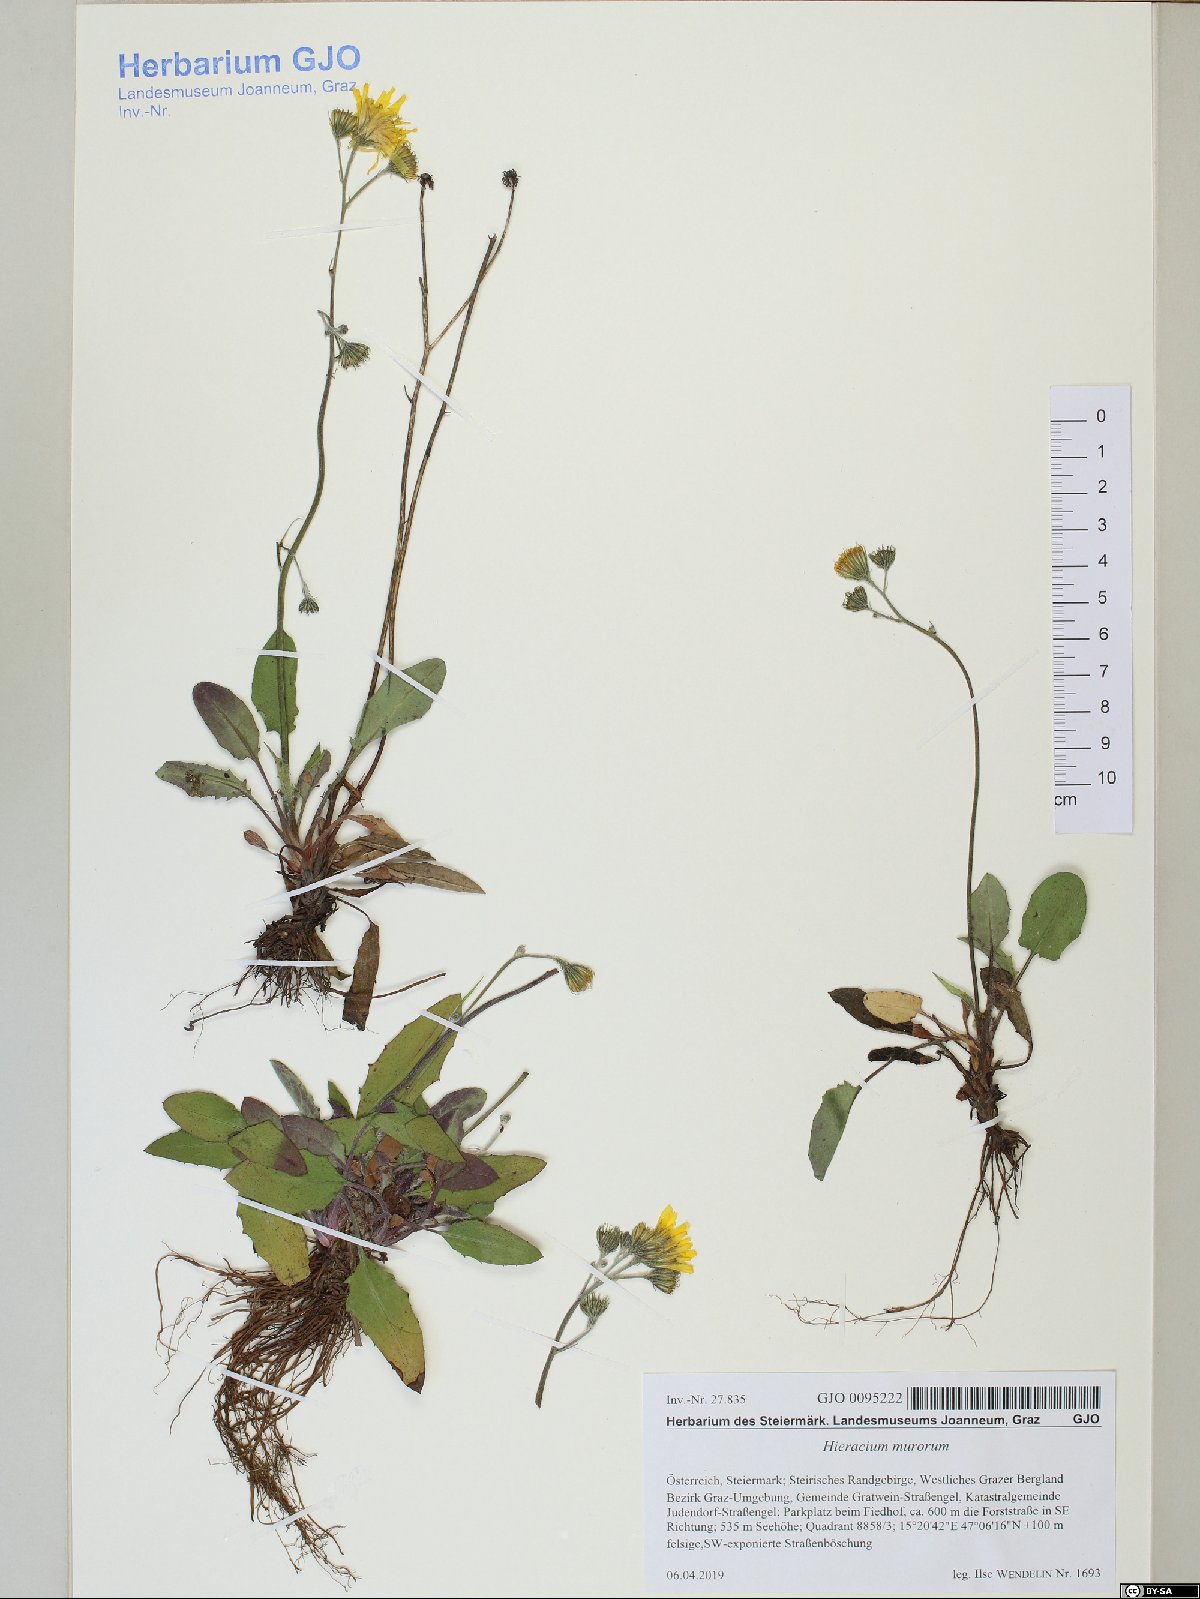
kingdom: Plantae
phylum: Tracheophyta
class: Magnoliopsida
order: Asterales
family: Asteraceae
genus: Hieracium
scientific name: Hieracium murorum
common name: Wall hawkweed
